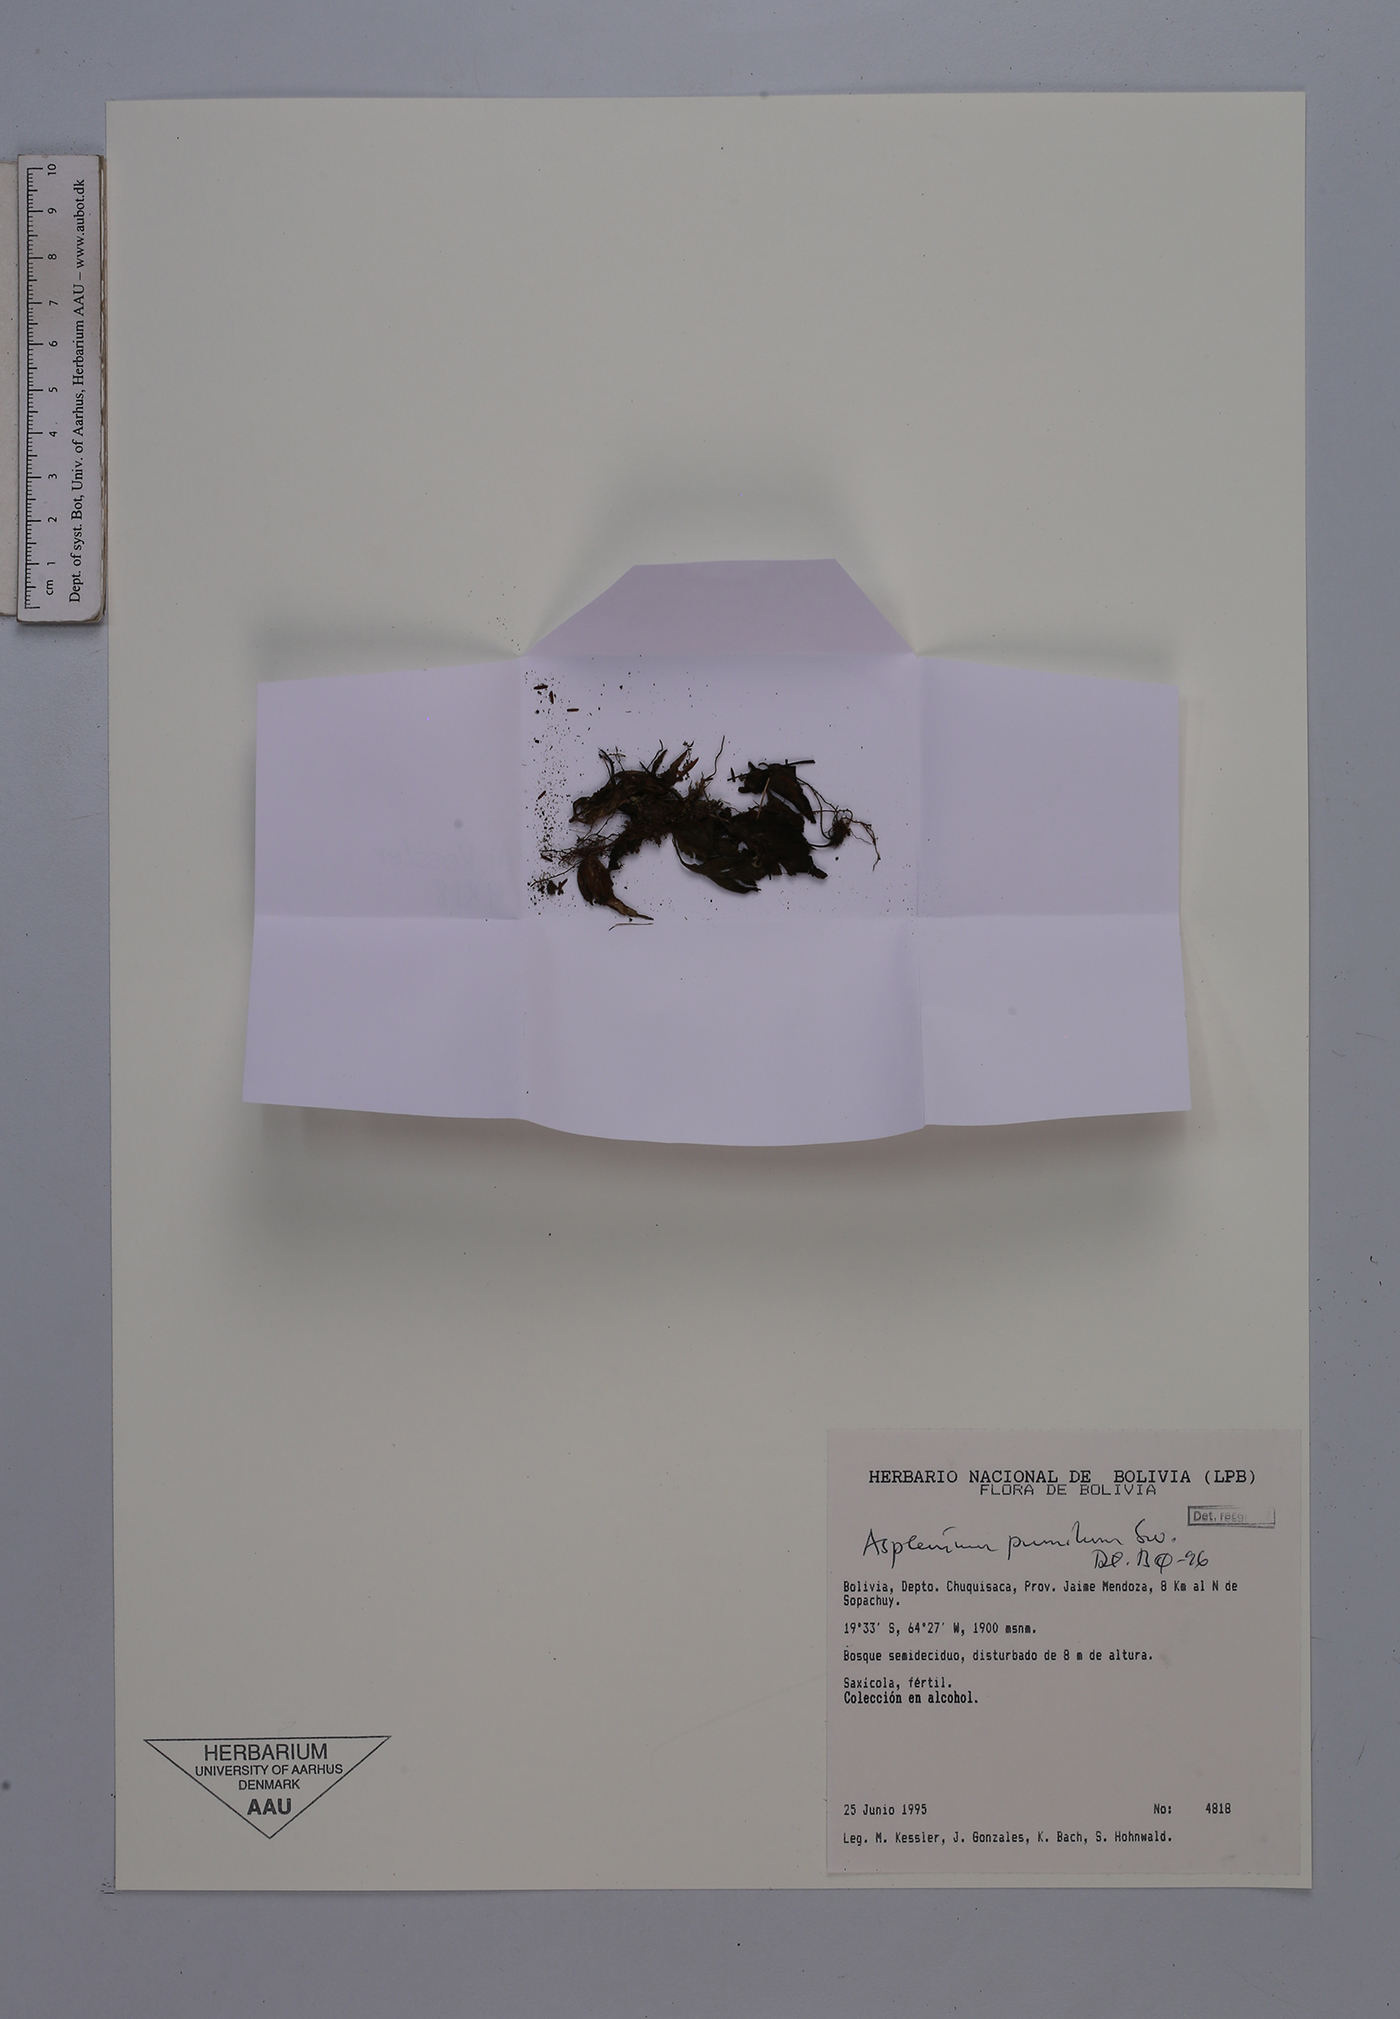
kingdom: Plantae
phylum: Tracheophyta
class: Polypodiopsida
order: Polypodiales
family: Aspleniaceae
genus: Asplenium
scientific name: Asplenium pumilum
